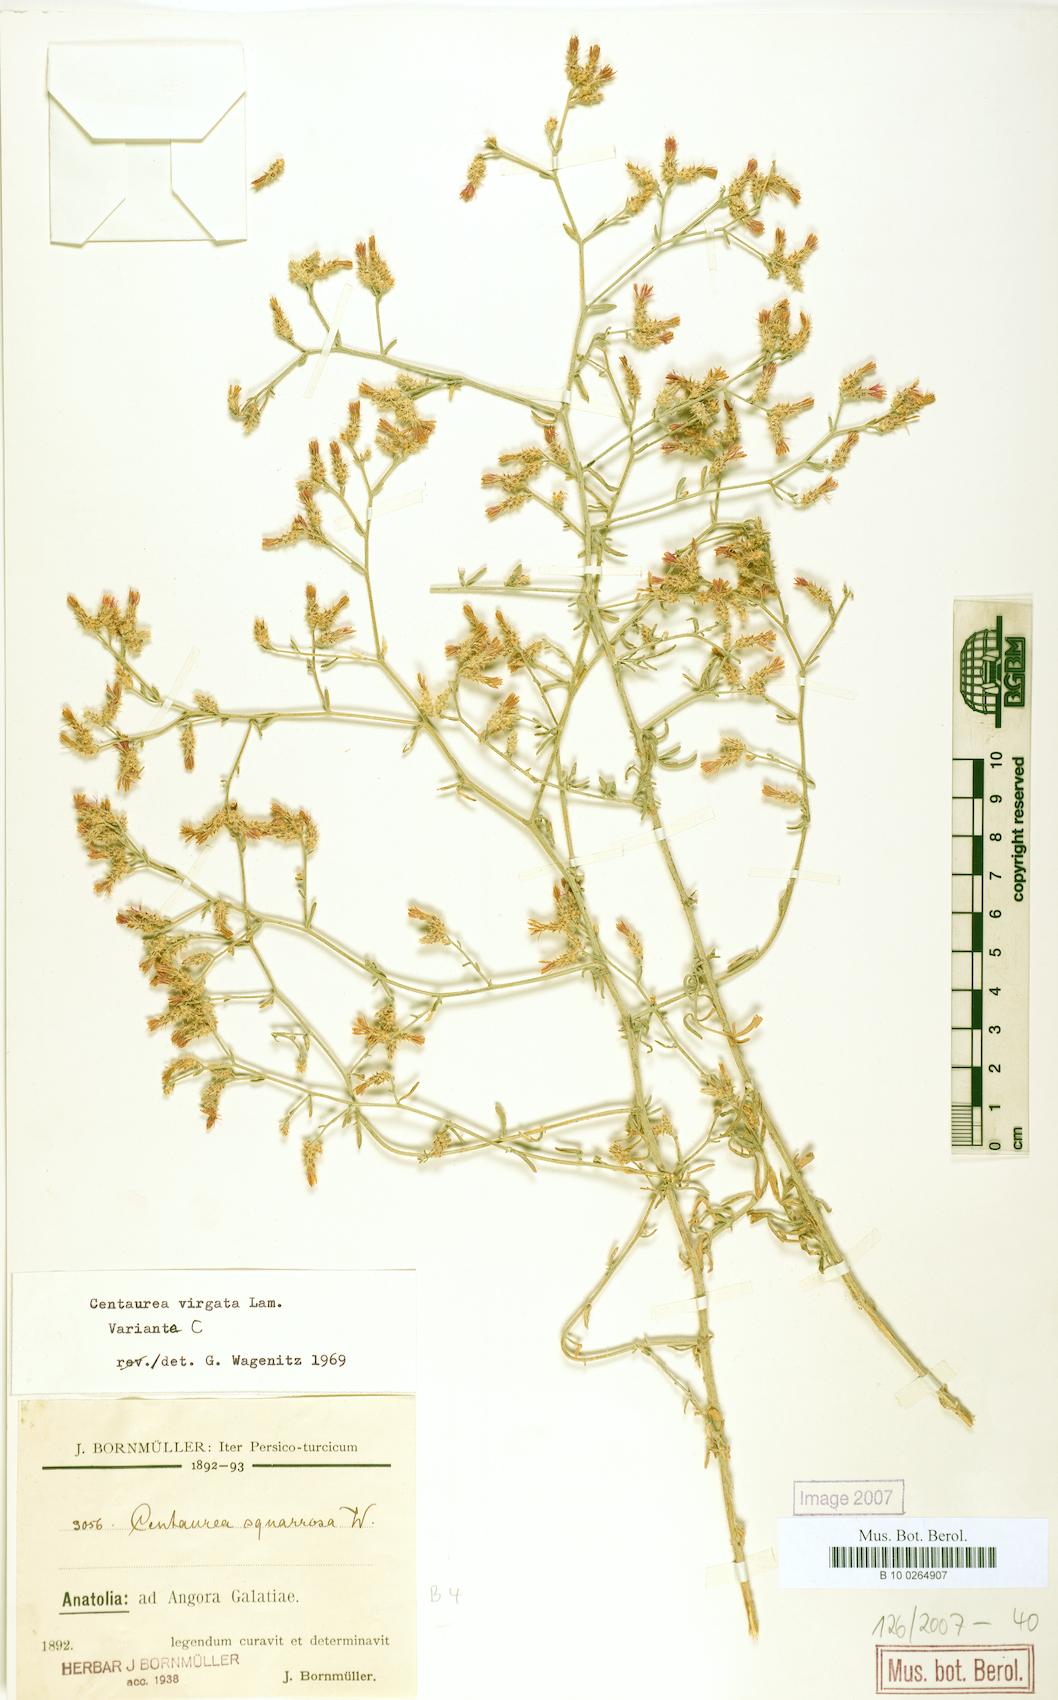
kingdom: Plantae
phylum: Tracheophyta
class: Magnoliopsida
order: Asterales
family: Asteraceae
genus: Centaurea
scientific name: Centaurea virgata
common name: Squarrose knapweed
